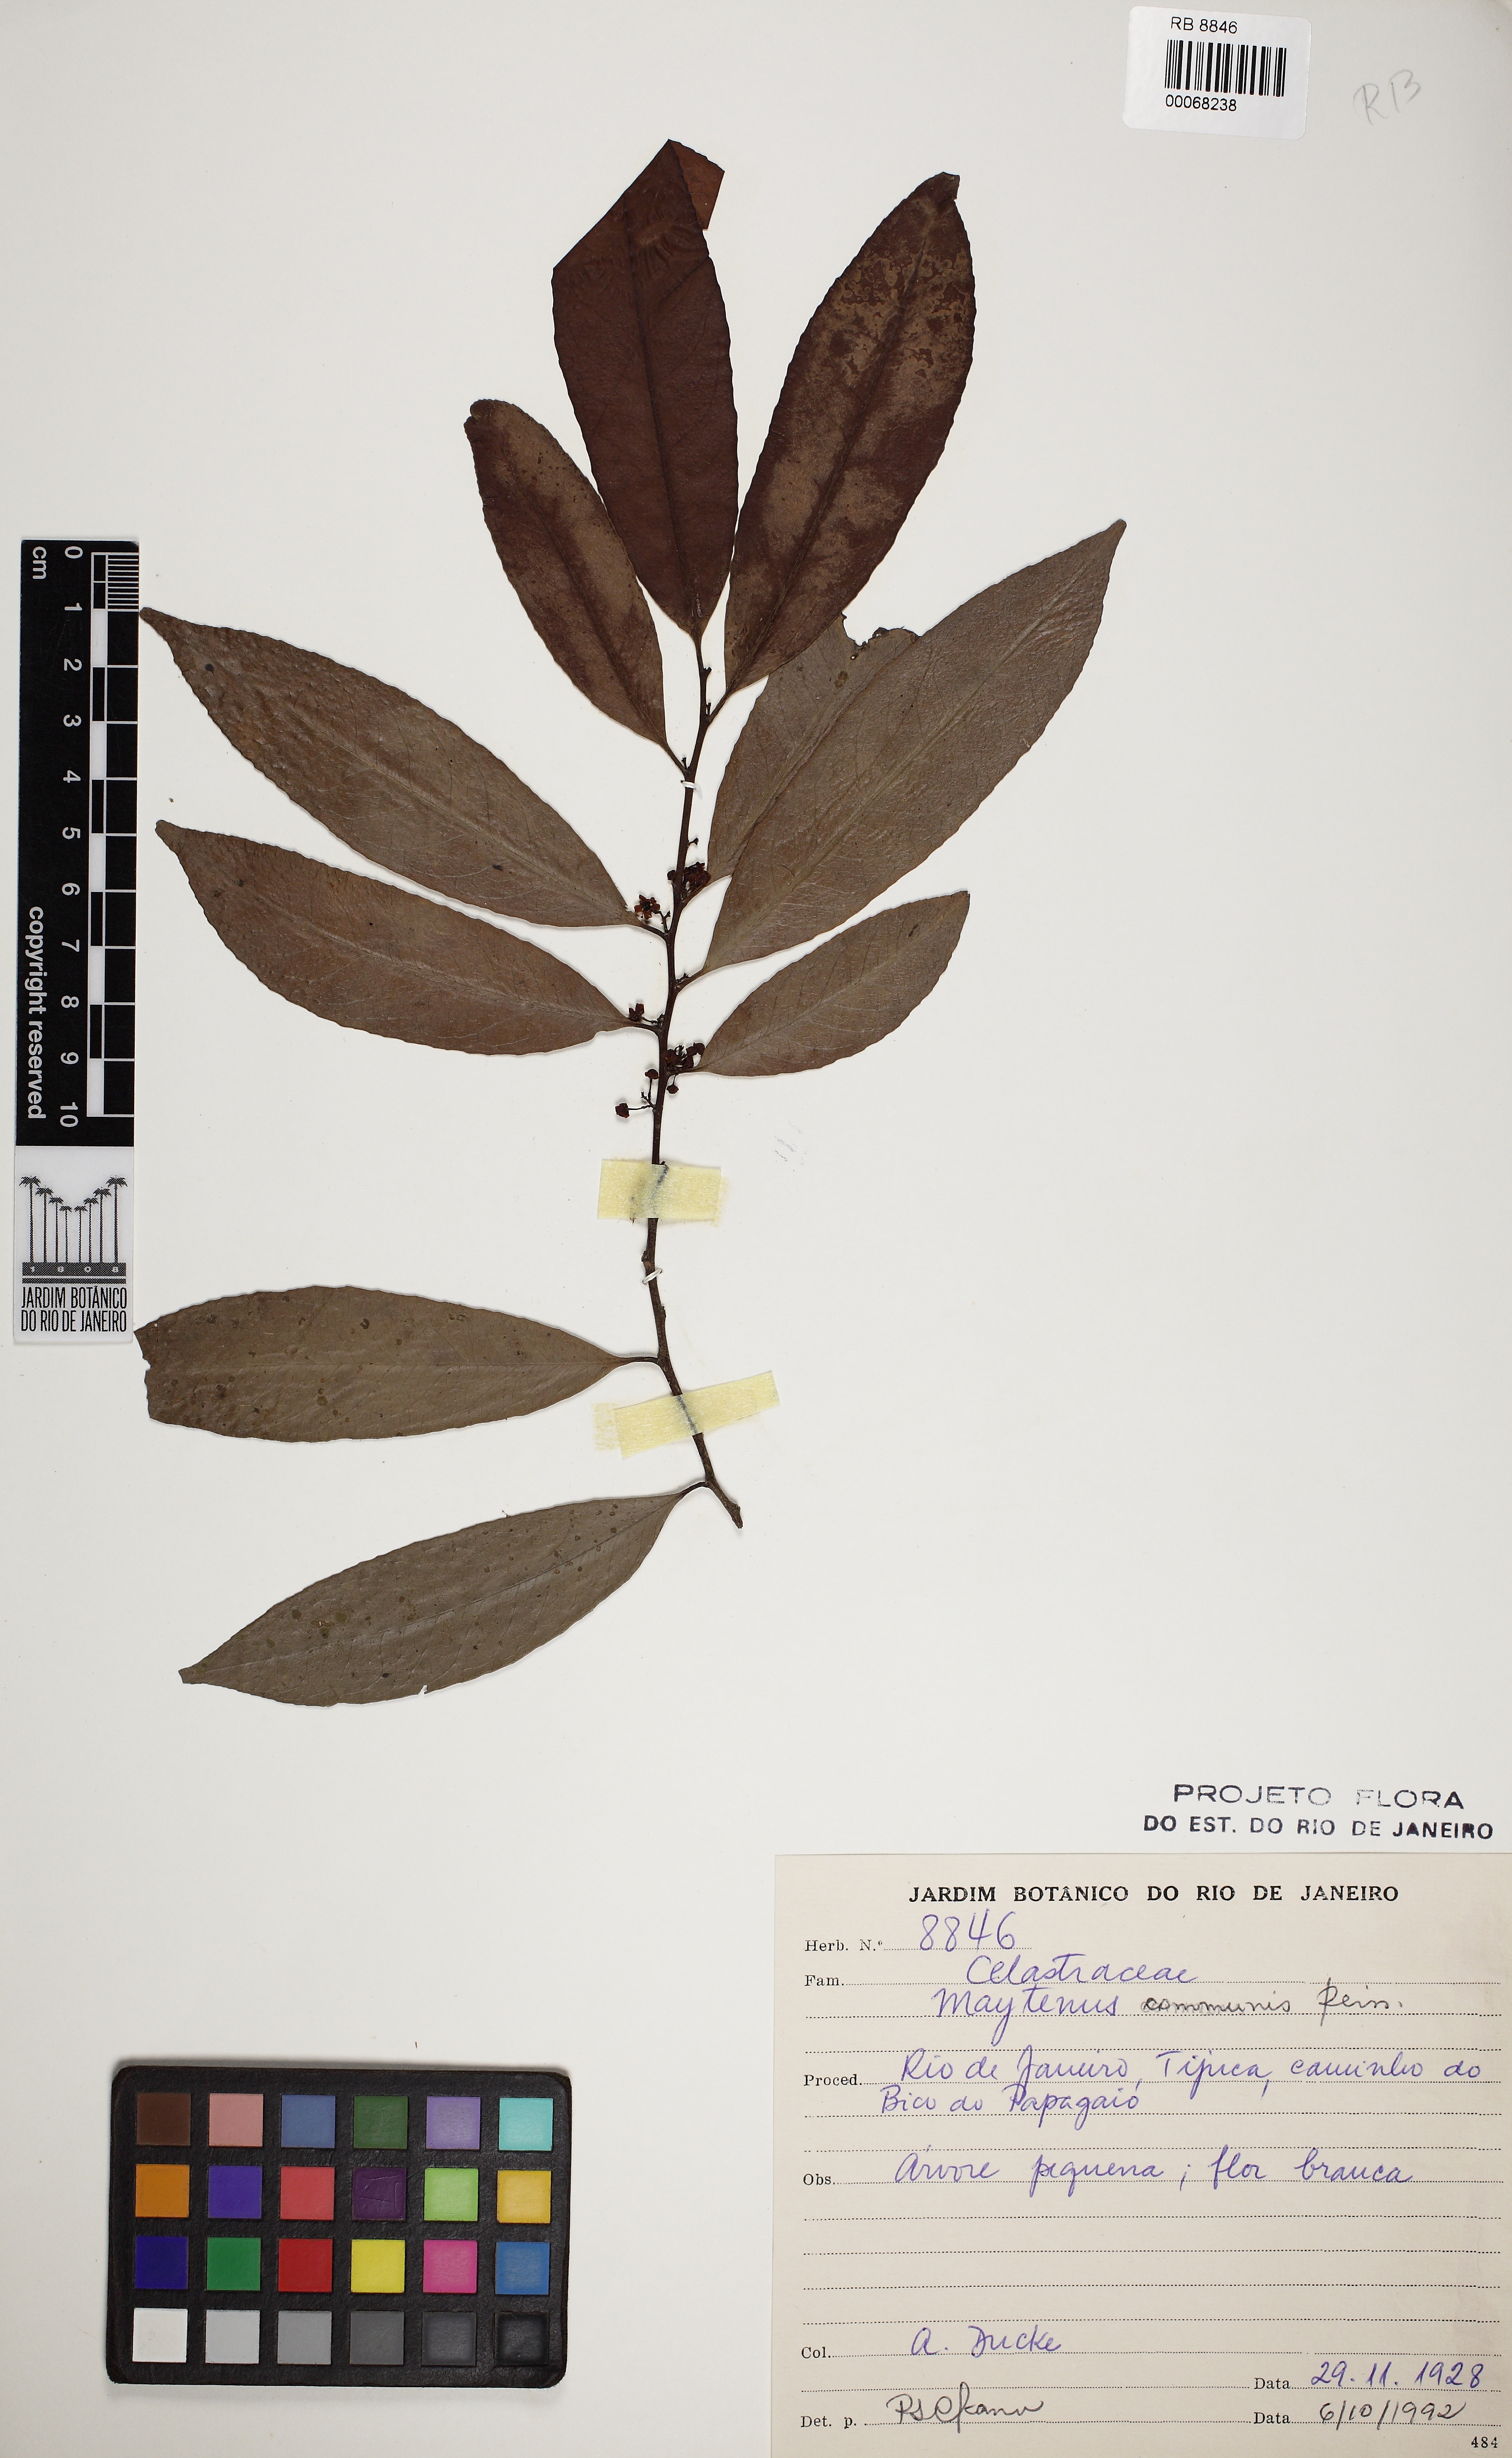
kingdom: Plantae
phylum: Tracheophyta
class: Magnoliopsida
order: Celastrales
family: Celastraceae
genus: Monteverdia
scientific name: Monteverdia communis
